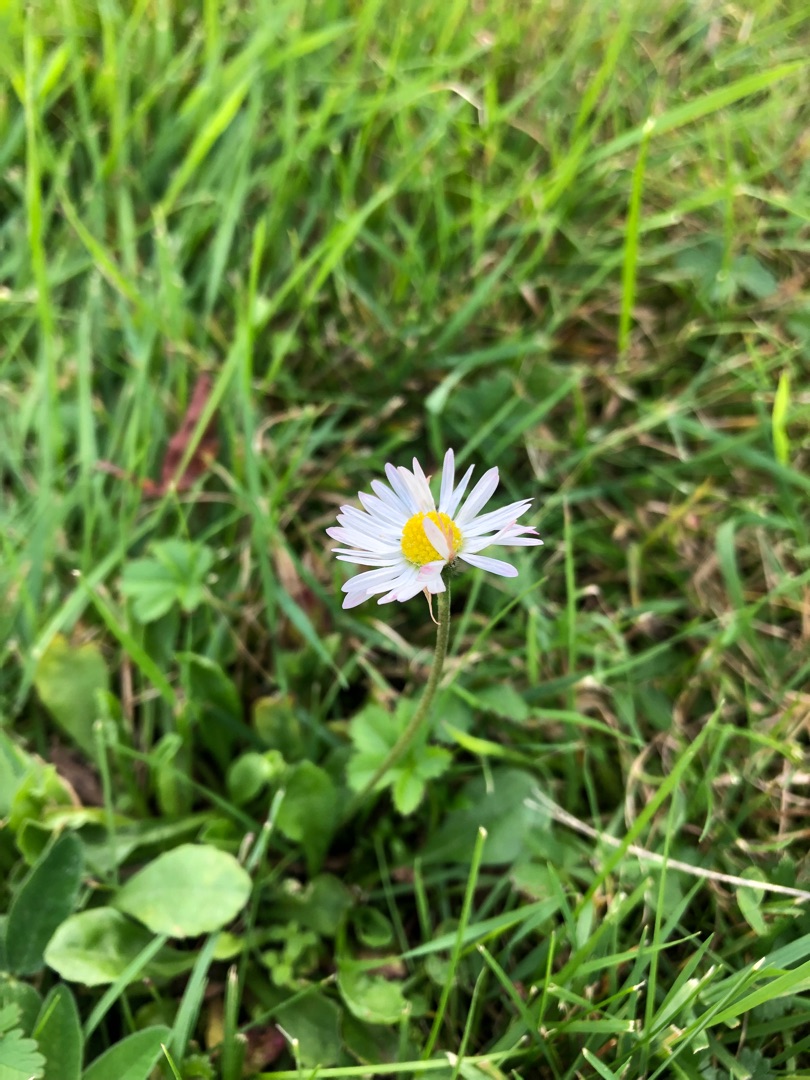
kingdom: Plantae
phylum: Tracheophyta
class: Magnoliopsida
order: Asterales
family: Asteraceae
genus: Bellis
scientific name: Bellis perennis
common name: Tusindfryd
